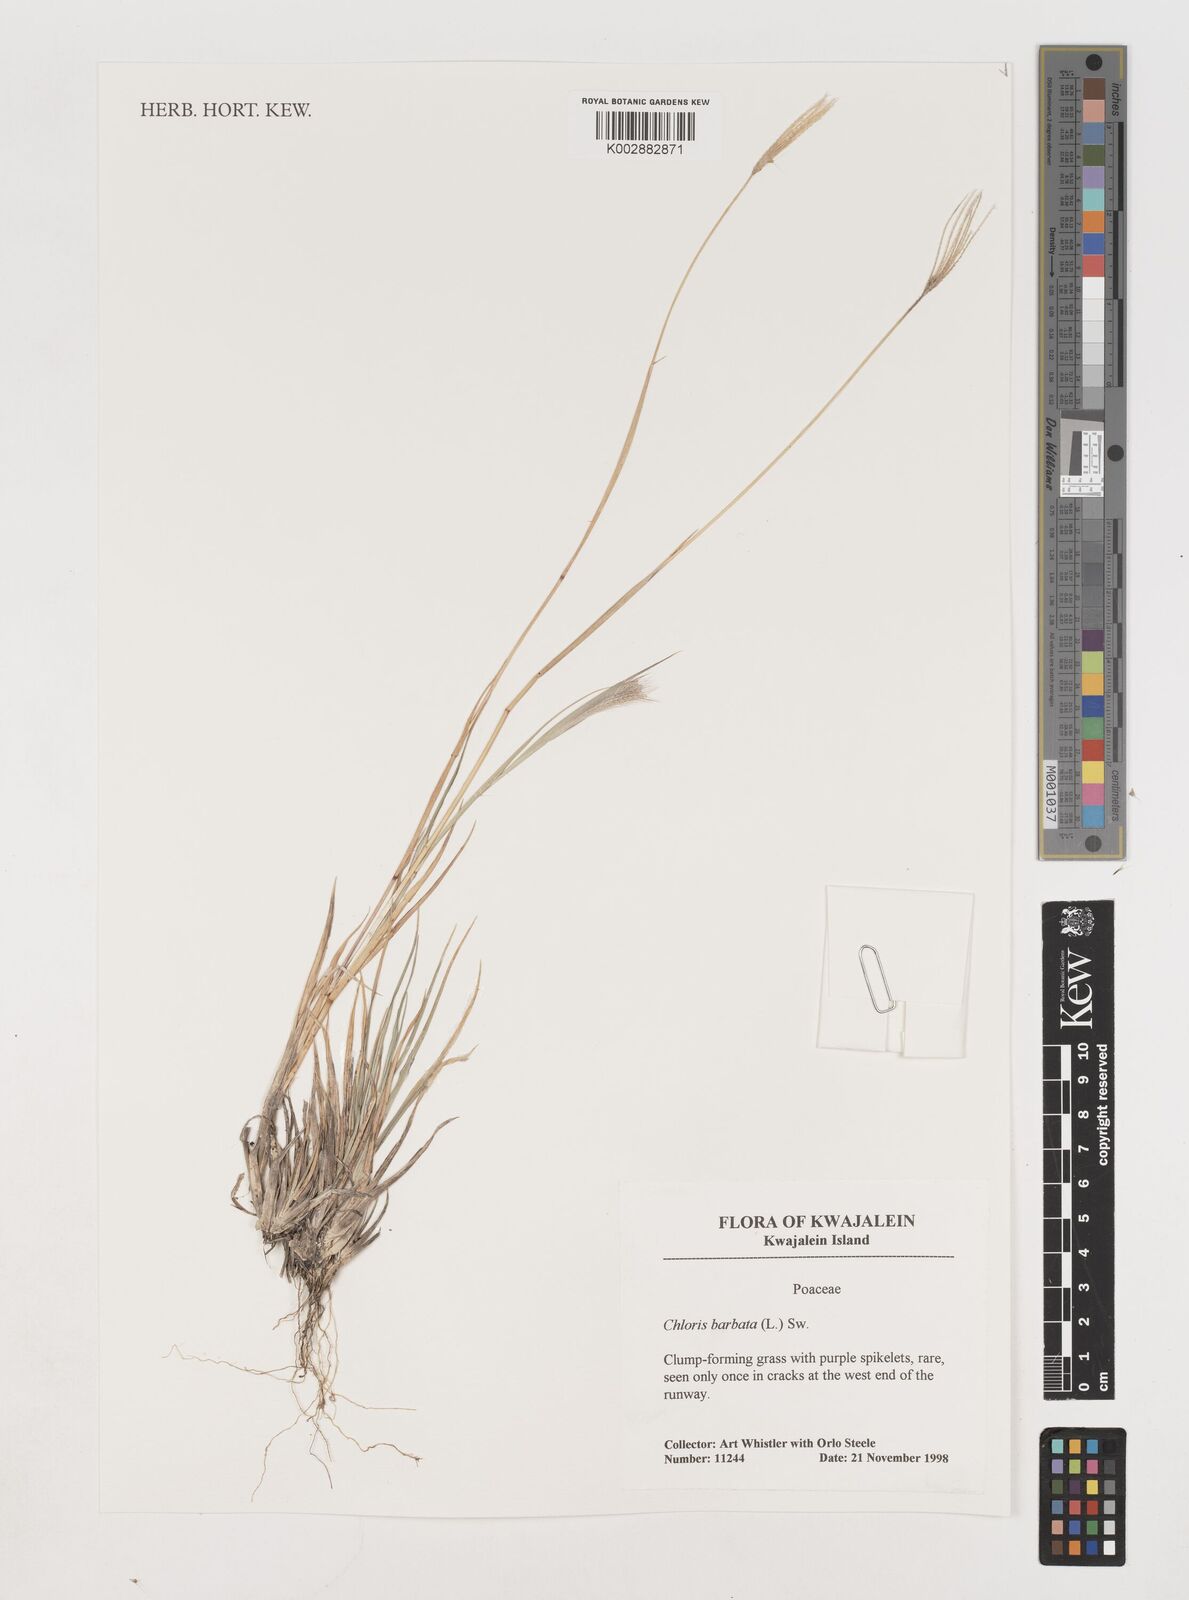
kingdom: Plantae
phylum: Tracheophyta
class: Liliopsida
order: Poales
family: Poaceae
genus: Chloris
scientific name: Chloris barbata
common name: Swollen fingergrass
